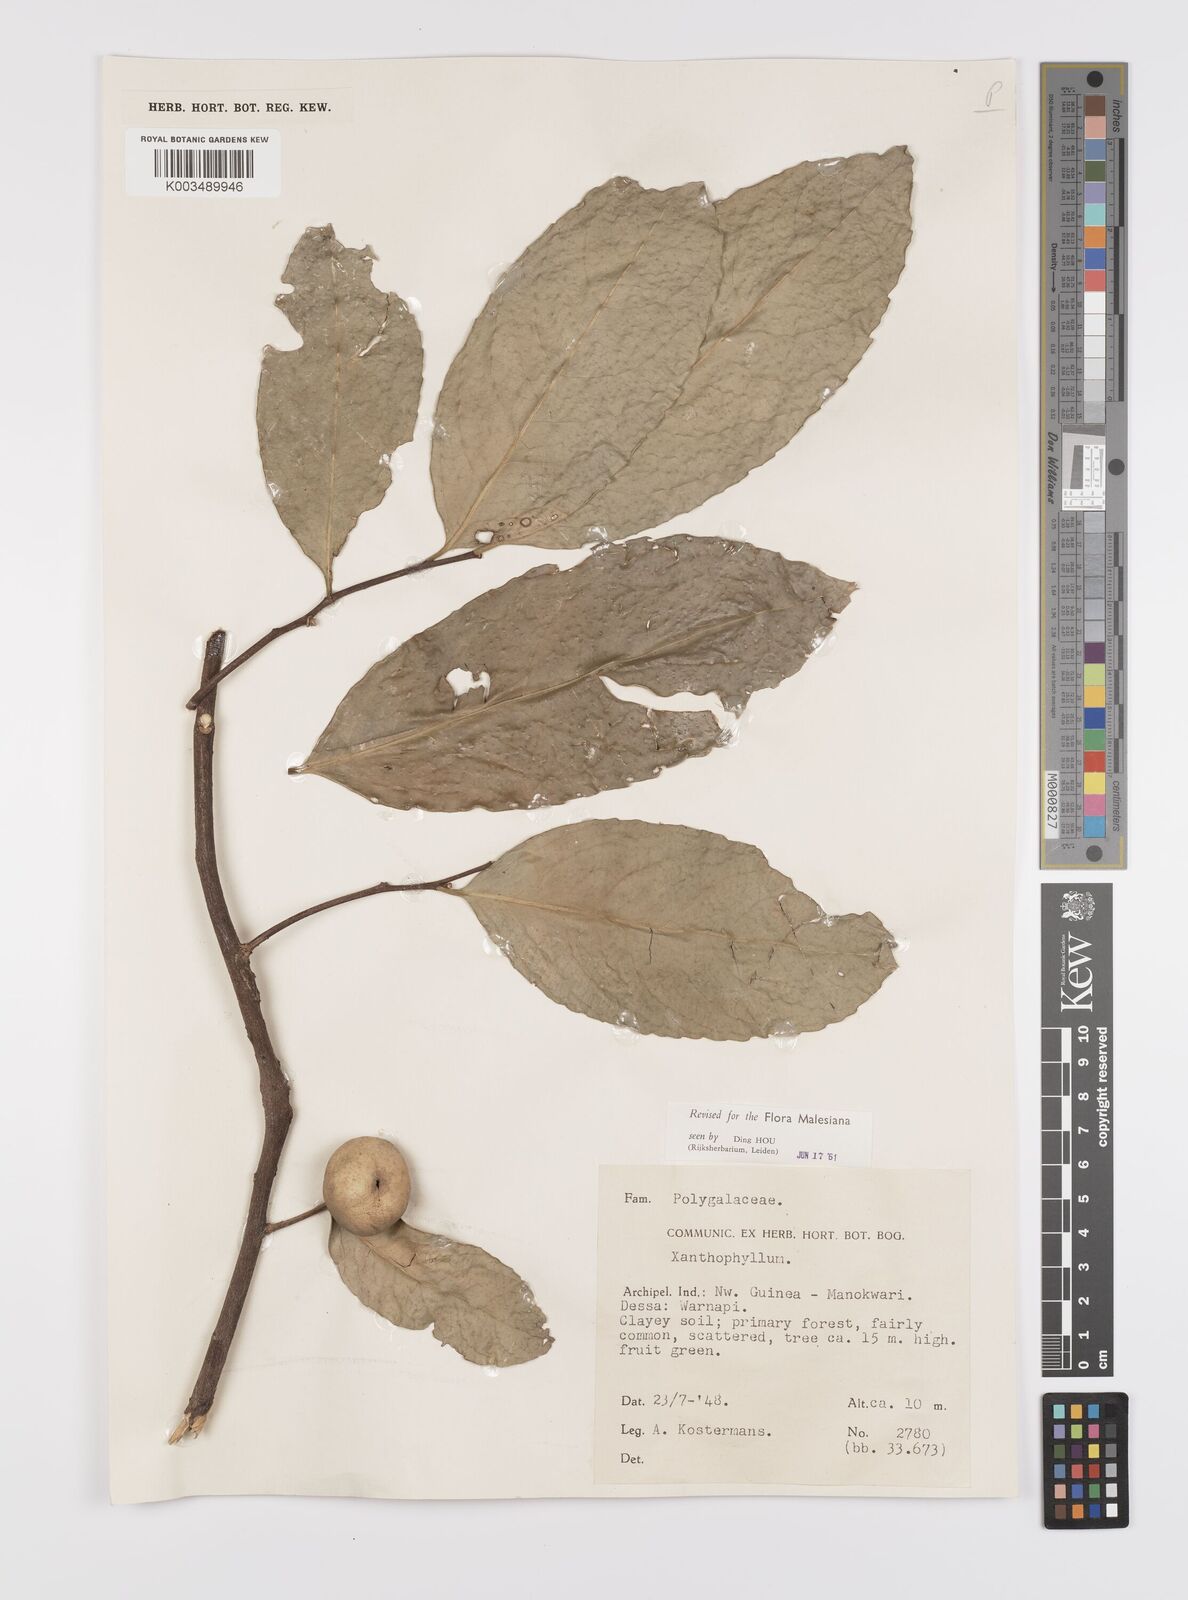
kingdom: Plantae
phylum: Tracheophyta
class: Magnoliopsida
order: Celastrales
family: Celastraceae
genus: Siphonodon
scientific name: Siphonodon celastrineus
